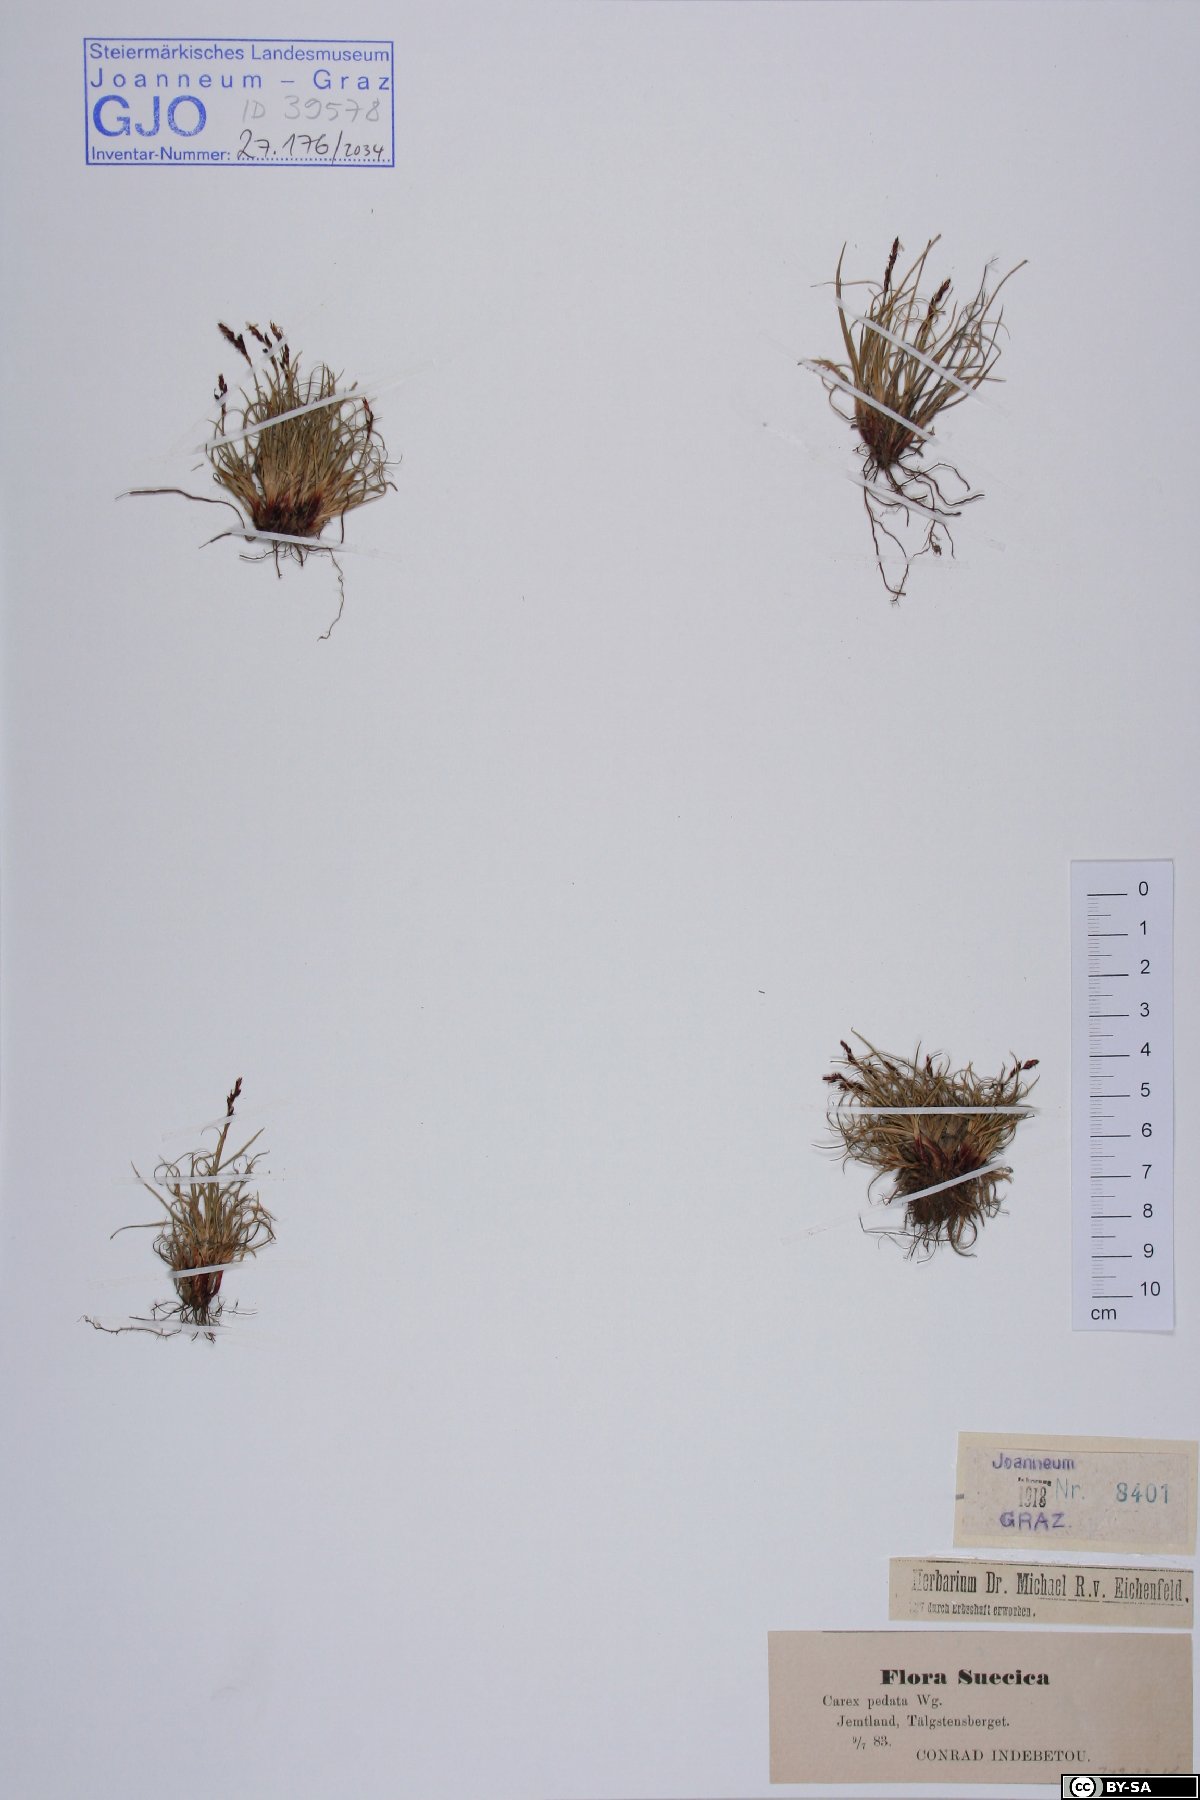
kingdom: Plantae
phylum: Tracheophyta
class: Liliopsida
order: Poales
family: Cyperaceae
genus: Carex
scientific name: Carex ornithopoda
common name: Bird's-foot sedge
